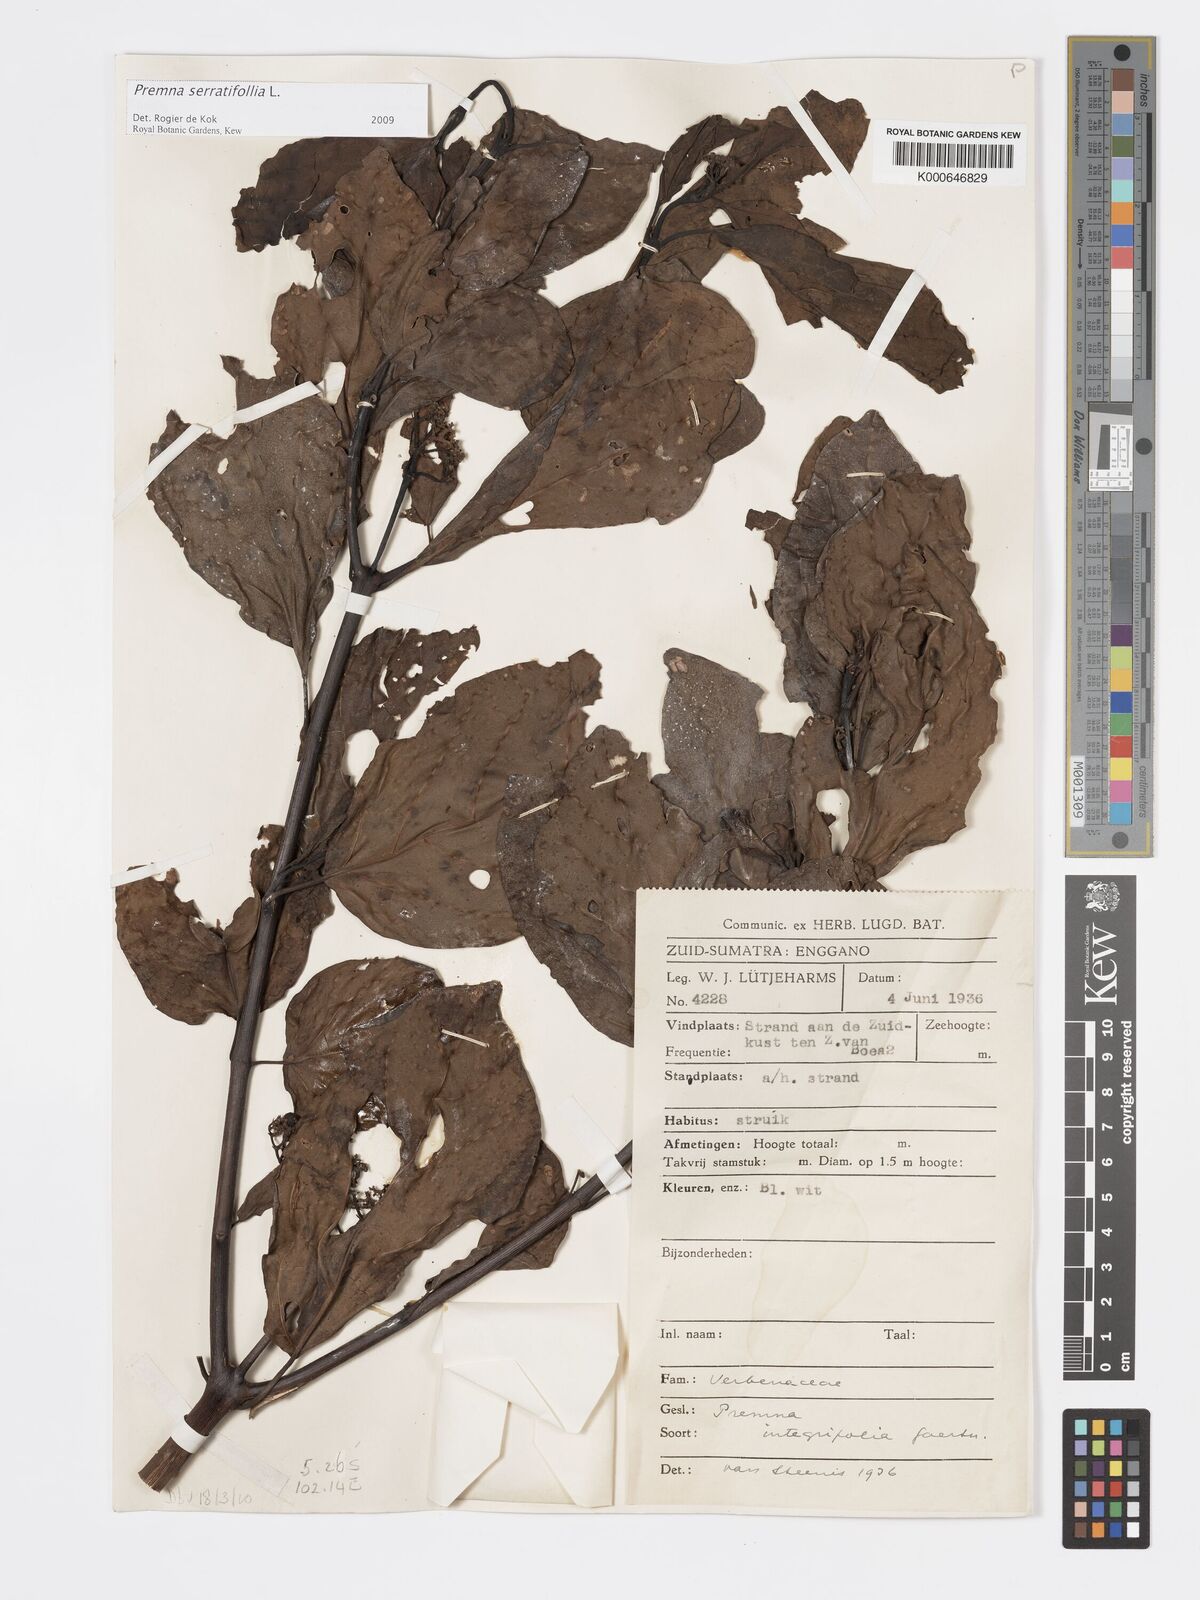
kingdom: Plantae
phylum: Tracheophyta
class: Magnoliopsida
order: Lamiales
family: Lamiaceae
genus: Premna
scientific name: Premna serratifolia
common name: Bastard guelder
